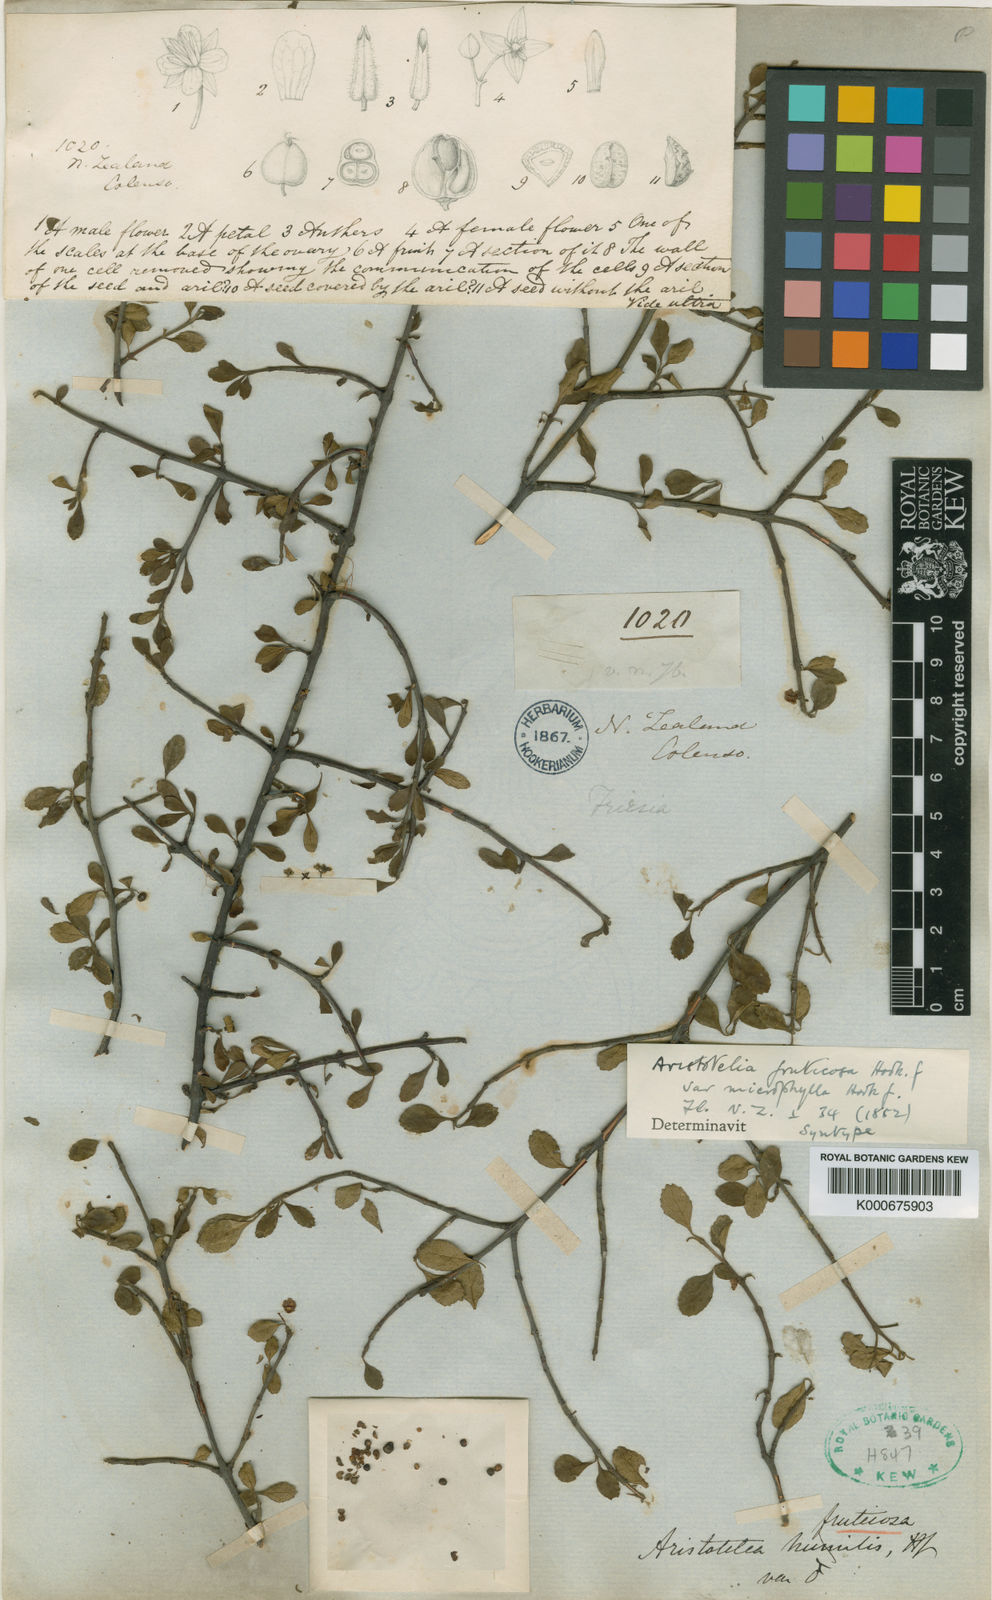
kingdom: Plantae
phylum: Tracheophyta
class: Magnoliopsida
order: Oxalidales
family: Elaeocarpaceae
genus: Aristotelia
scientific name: Aristotelia fruticosa
